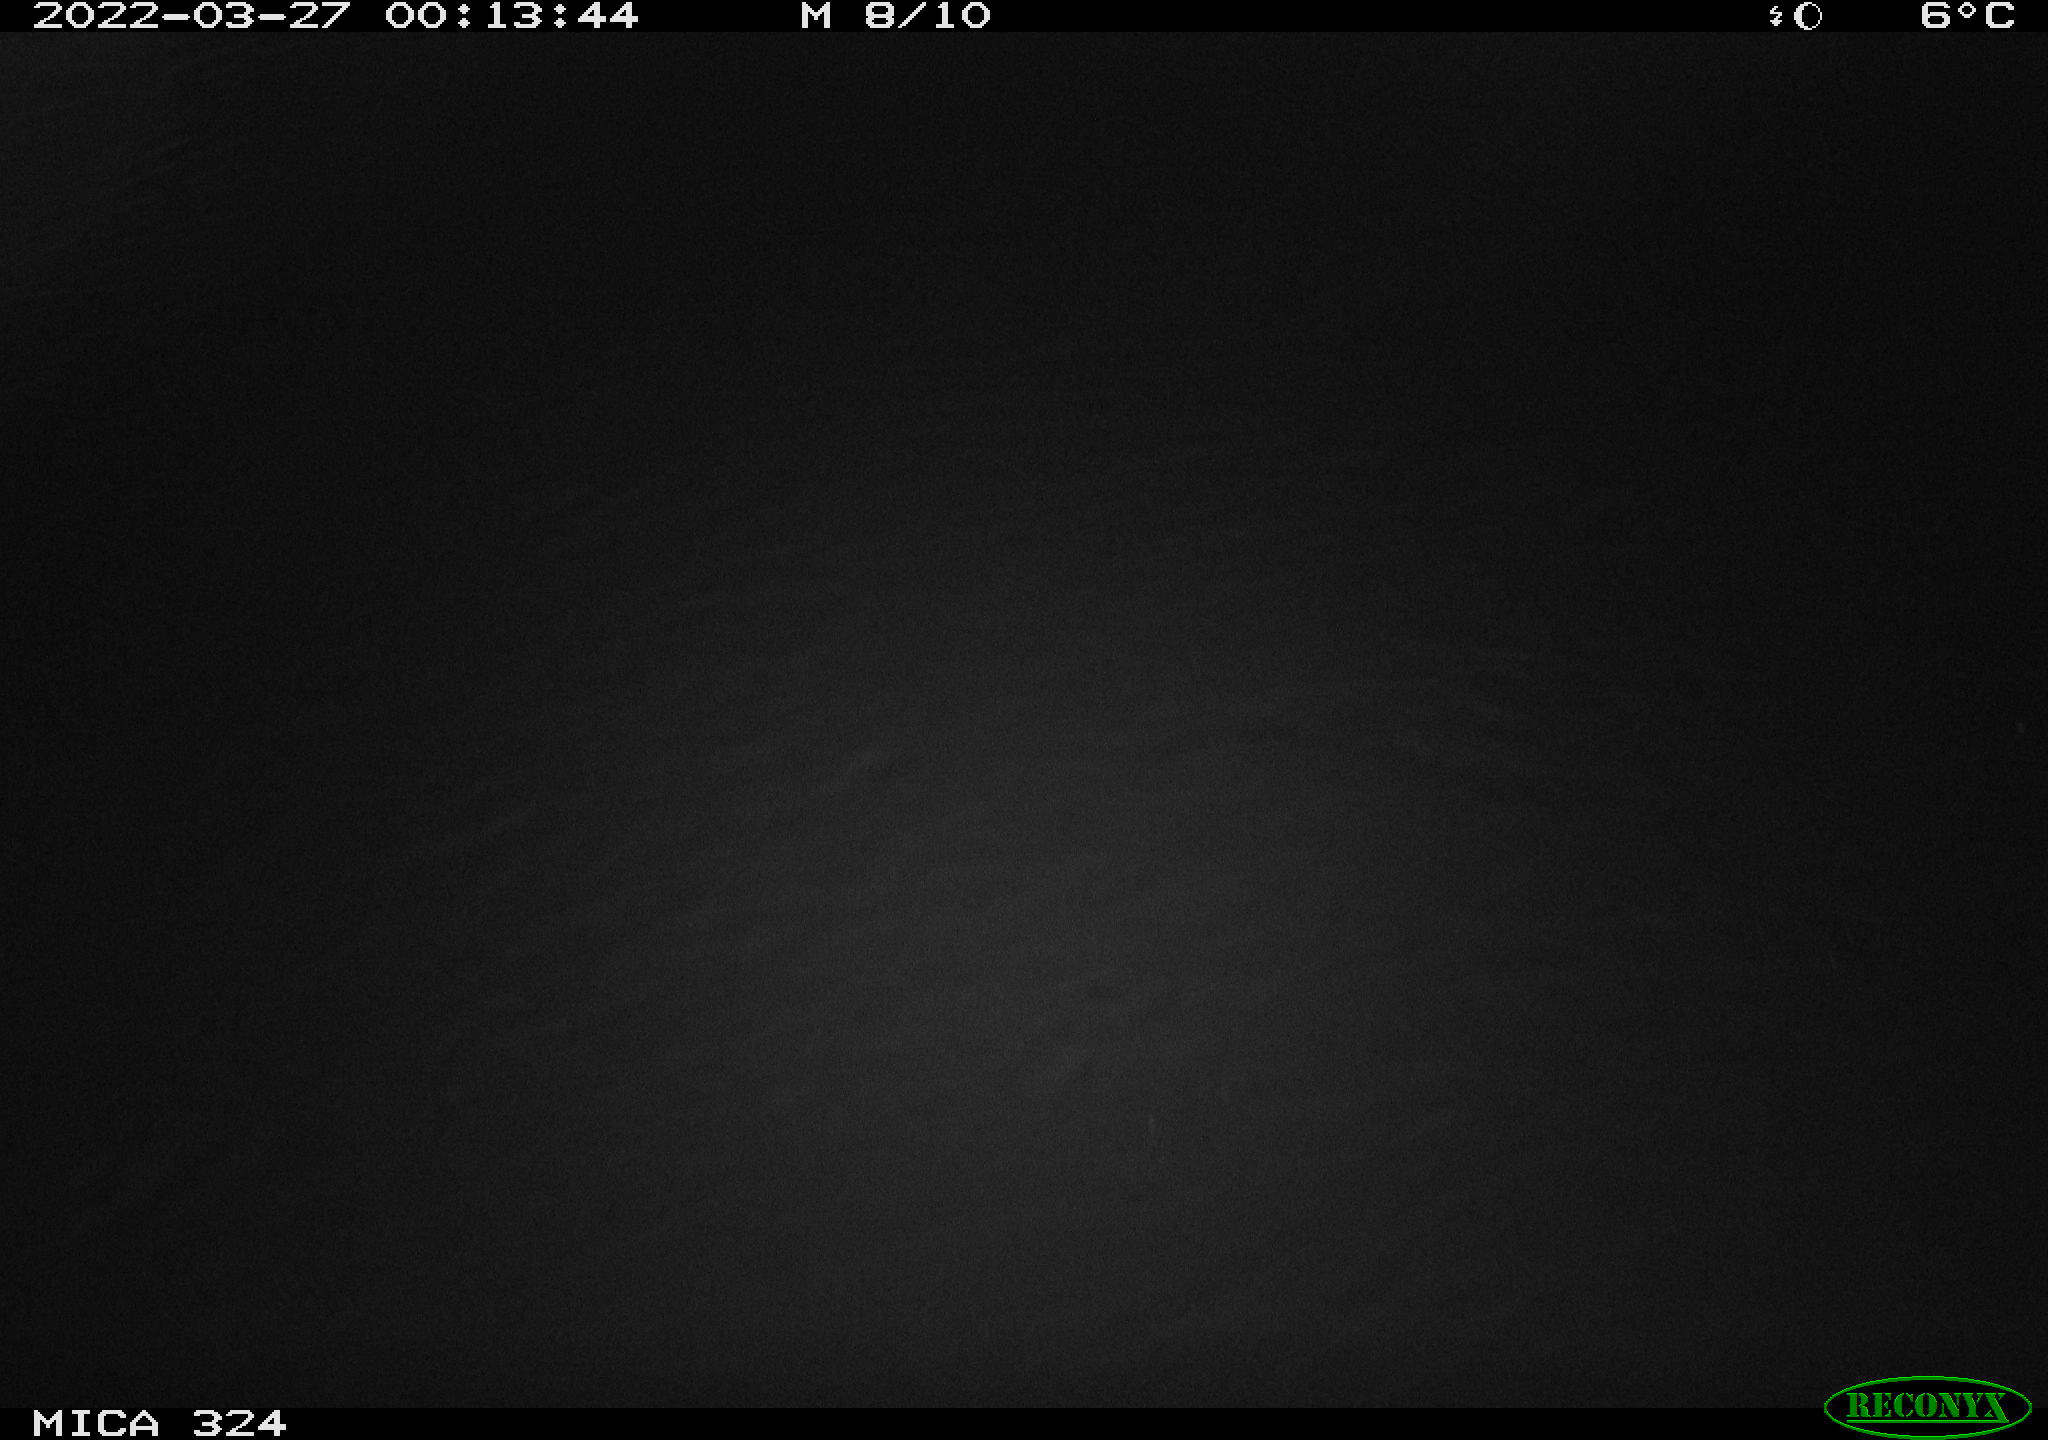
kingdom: Animalia
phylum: Chordata
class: Mammalia
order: Rodentia
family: Cricetidae
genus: Ondatra
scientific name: Ondatra zibethicus
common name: Muskrat
